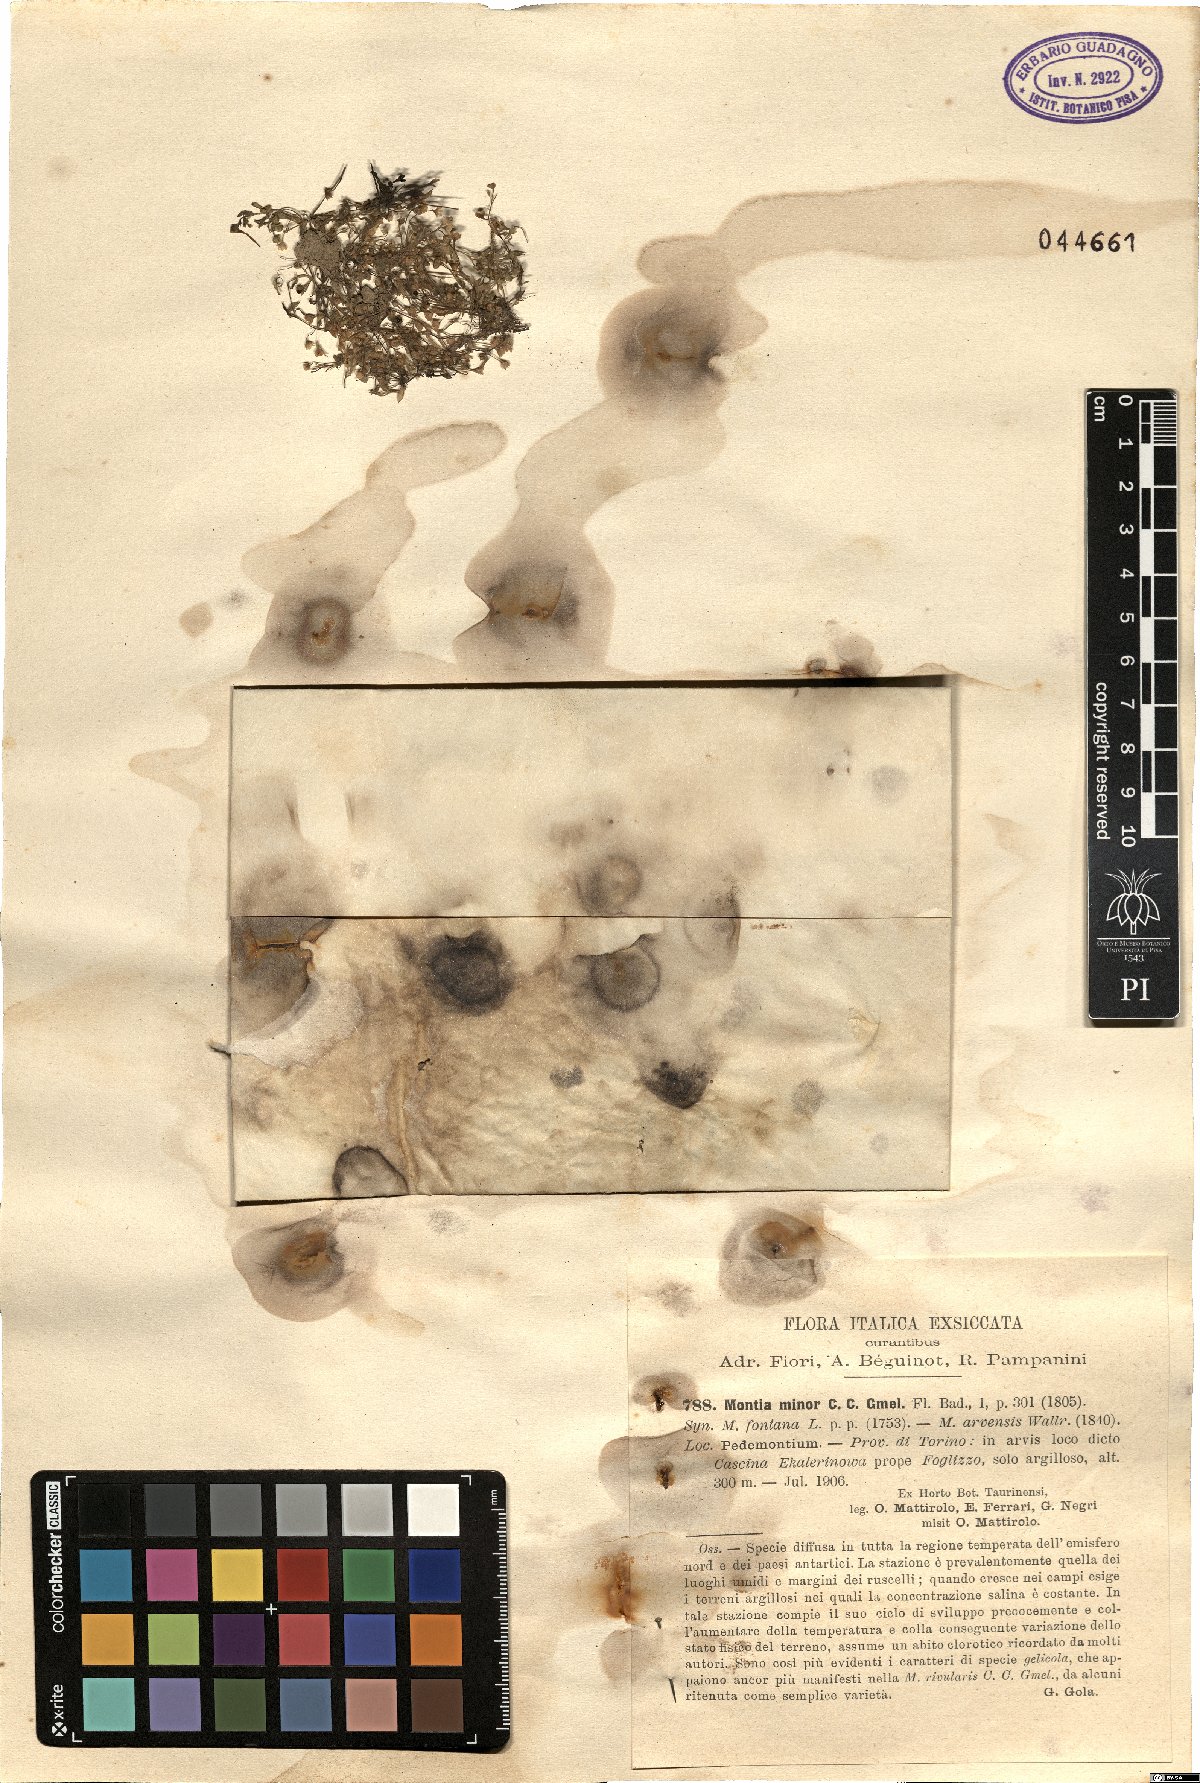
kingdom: Plantae
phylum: Tracheophyta
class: Magnoliopsida
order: Caryophyllales
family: Montiaceae
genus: Montia
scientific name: Montia arvensis
